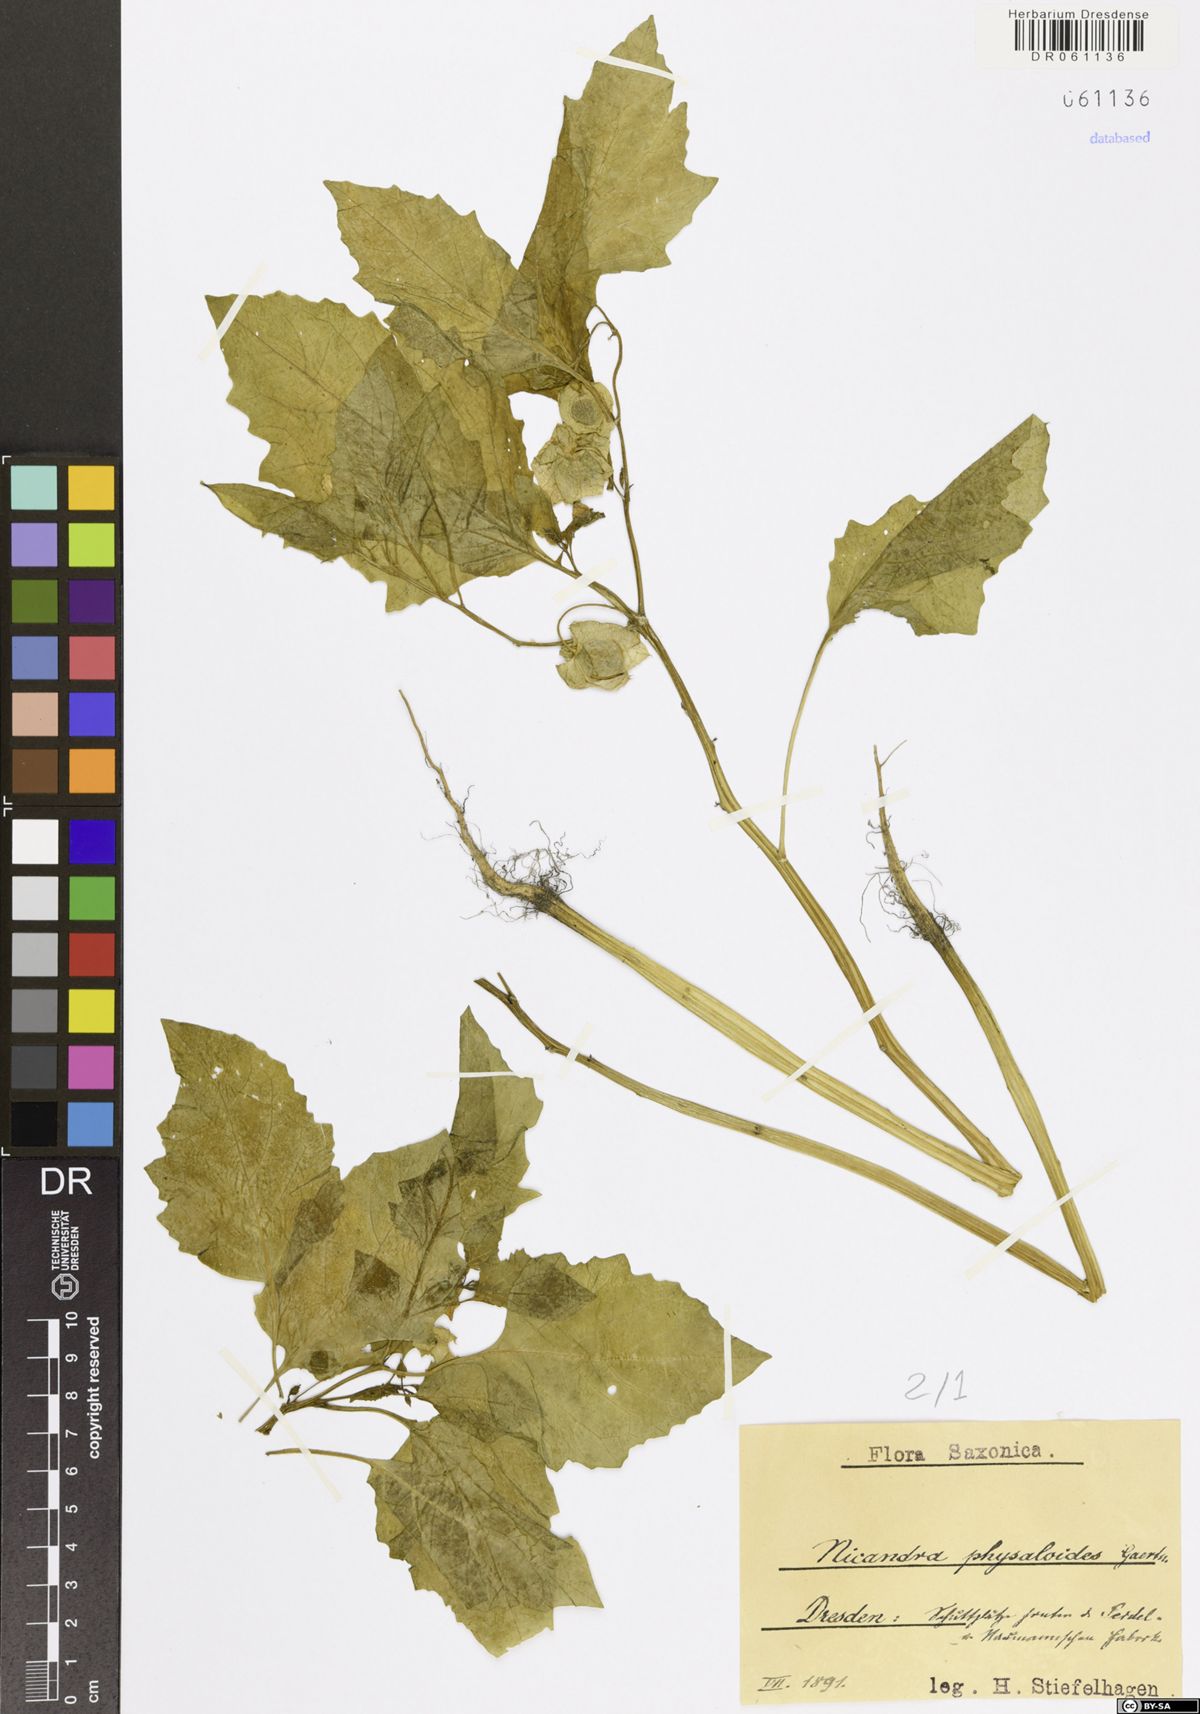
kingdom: Plantae
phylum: Tracheophyta
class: Magnoliopsida
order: Solanales
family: Solanaceae
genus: Nicandra
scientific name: Nicandra physalodes
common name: Apple-of-peru
